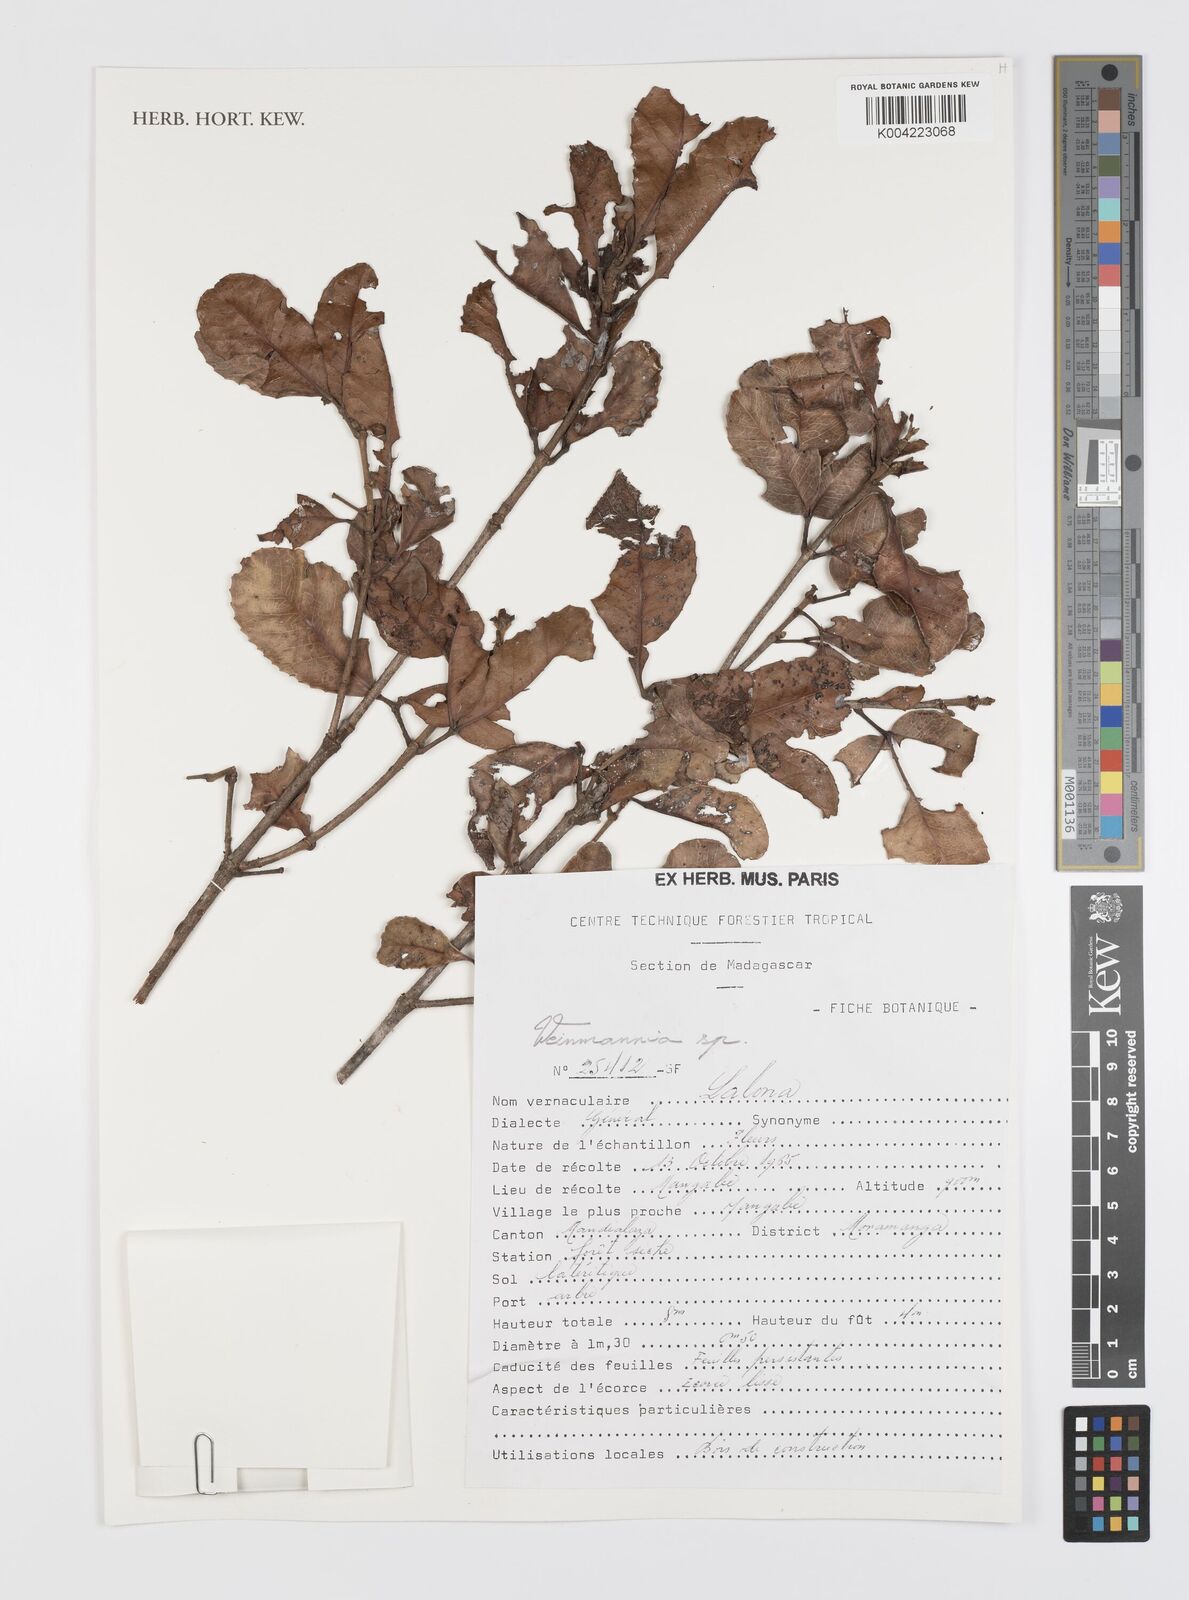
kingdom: Plantae
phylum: Tracheophyta
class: Magnoliopsida
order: Oxalidales
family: Cunoniaceae
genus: Weinmannia
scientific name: Weinmannia
